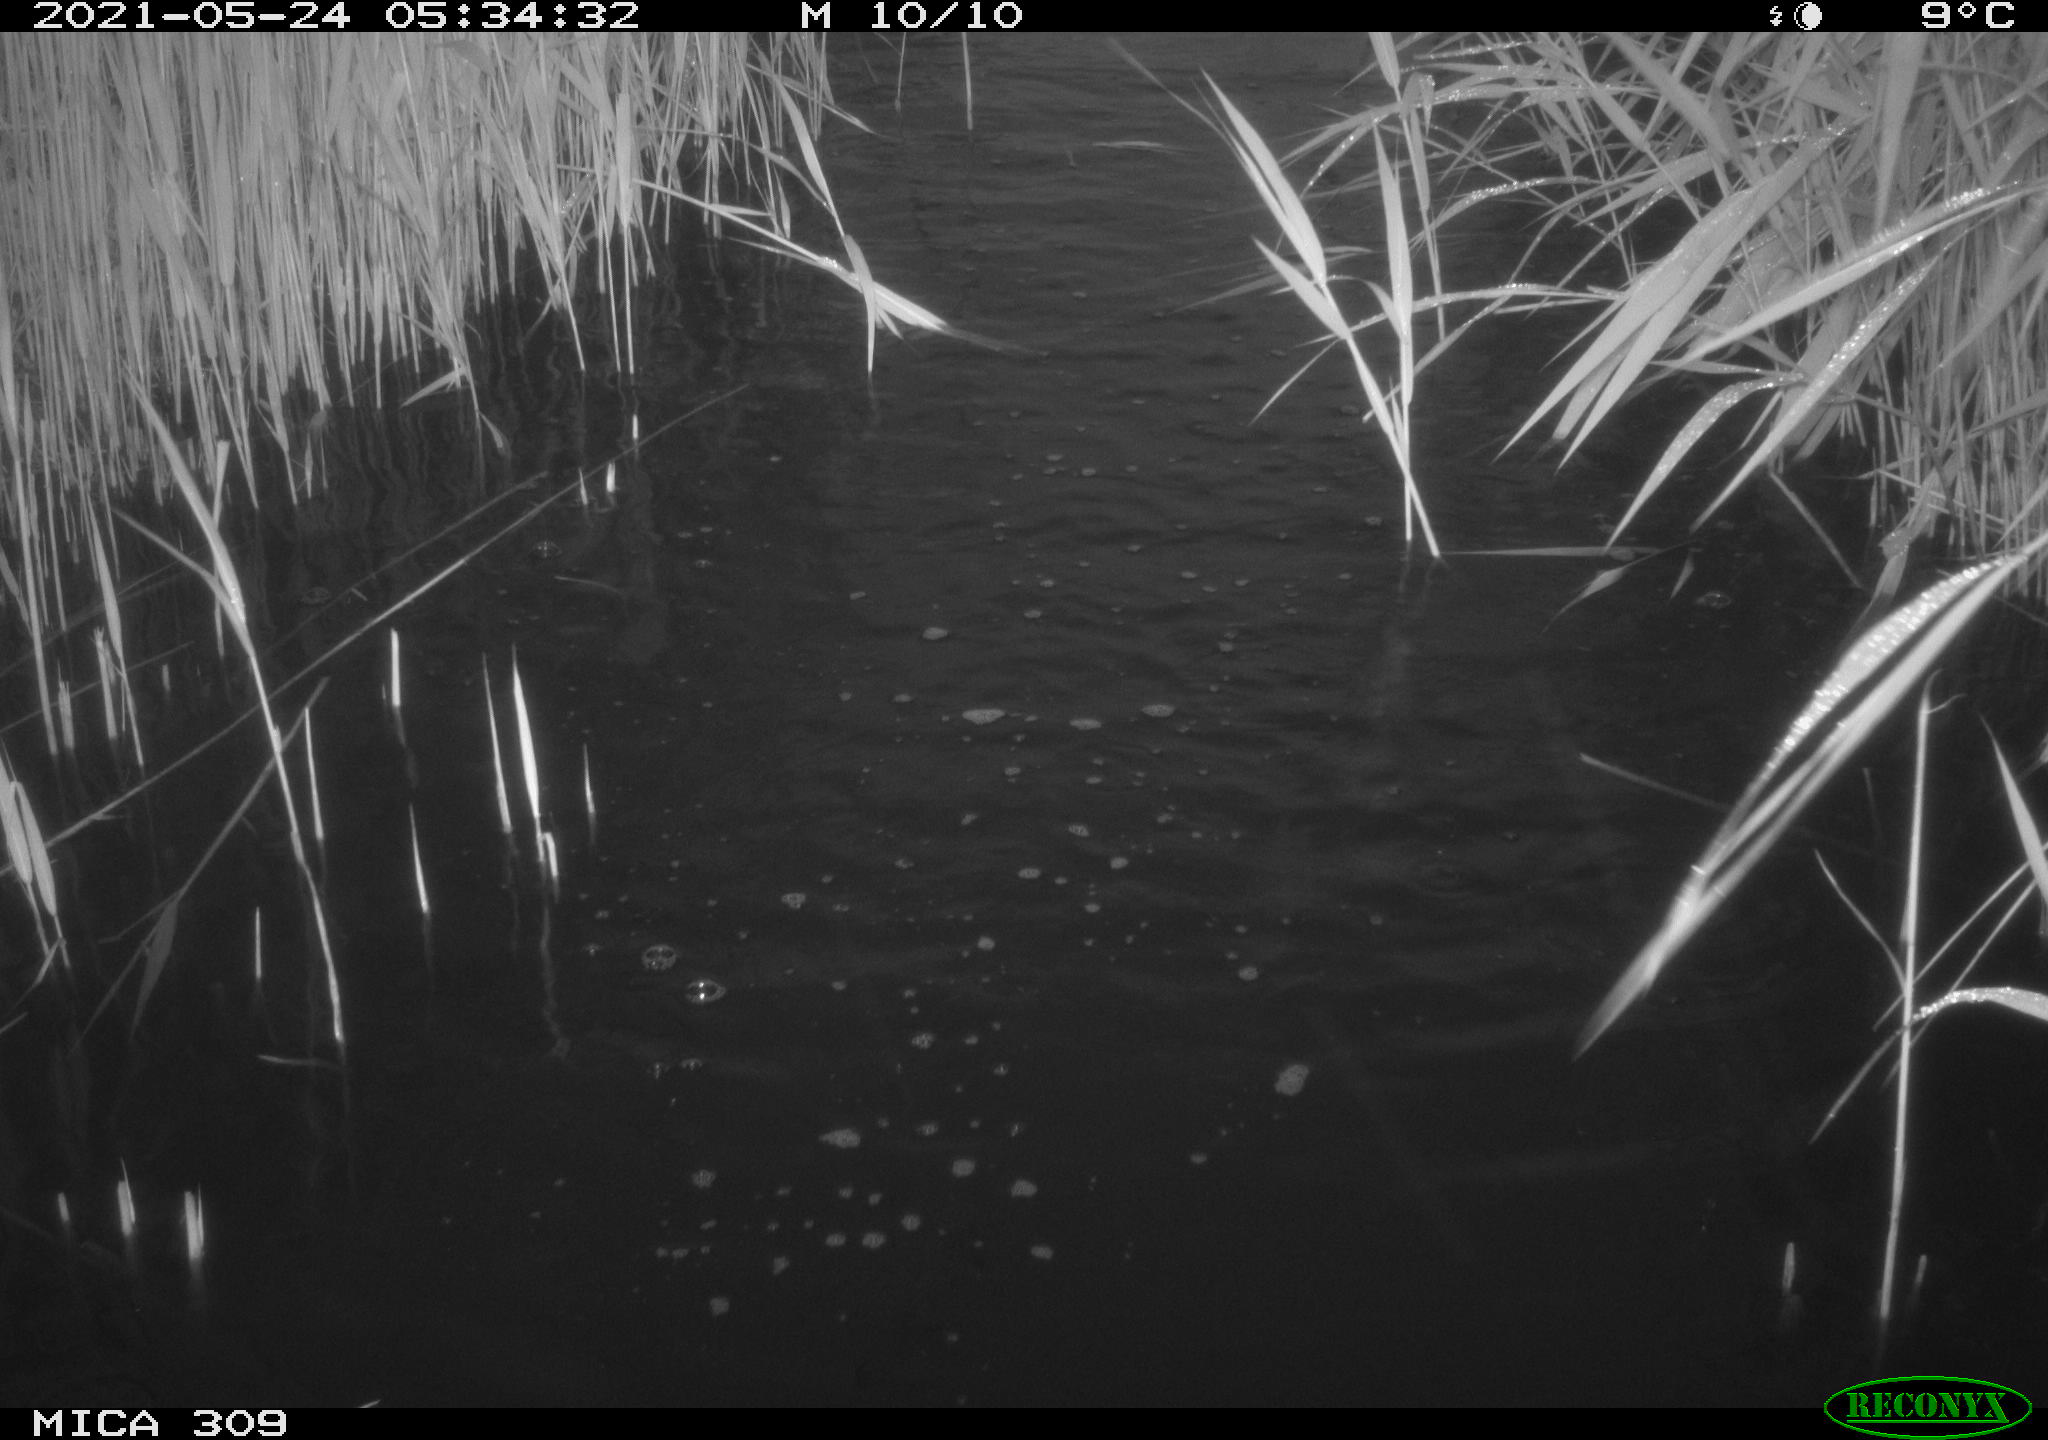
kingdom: Animalia
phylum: Chordata
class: Aves
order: Anseriformes
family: Anatidae
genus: Anas
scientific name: Anas platyrhynchos
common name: Mallard
